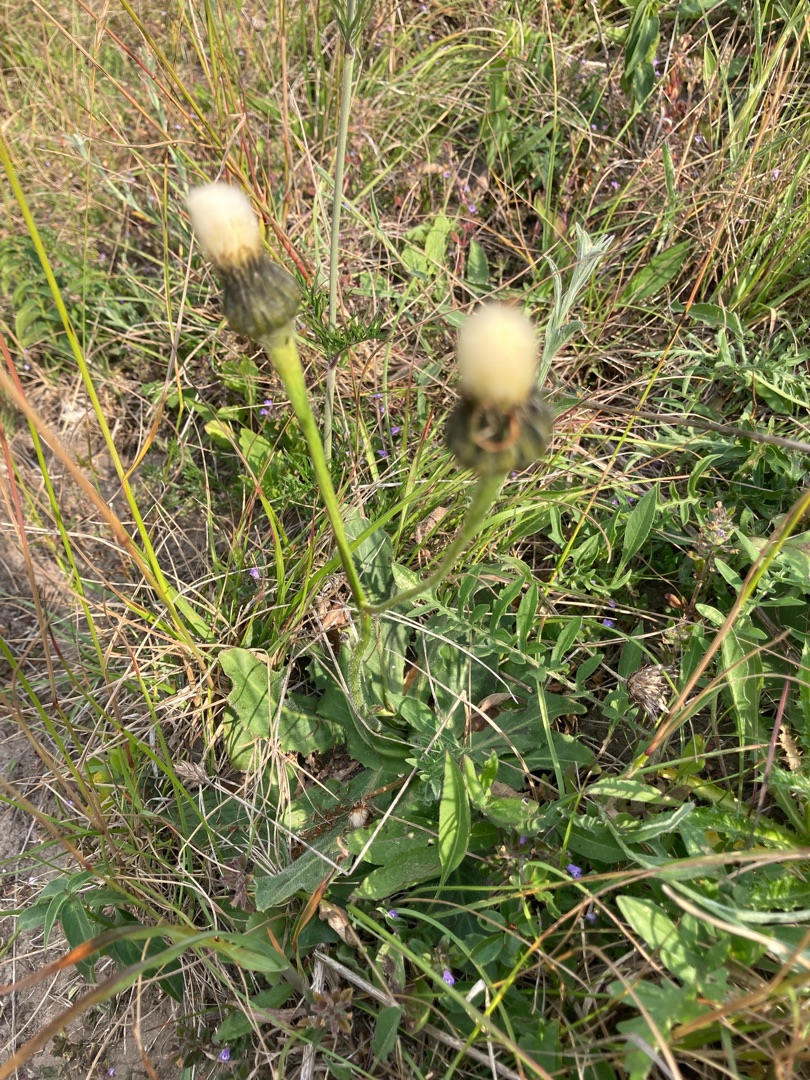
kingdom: Plantae
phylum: Tracheophyta
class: Magnoliopsida
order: Asterales
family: Asteraceae
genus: Trommsdorffia
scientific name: Trommsdorffia maculata
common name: Plettet kongepen
